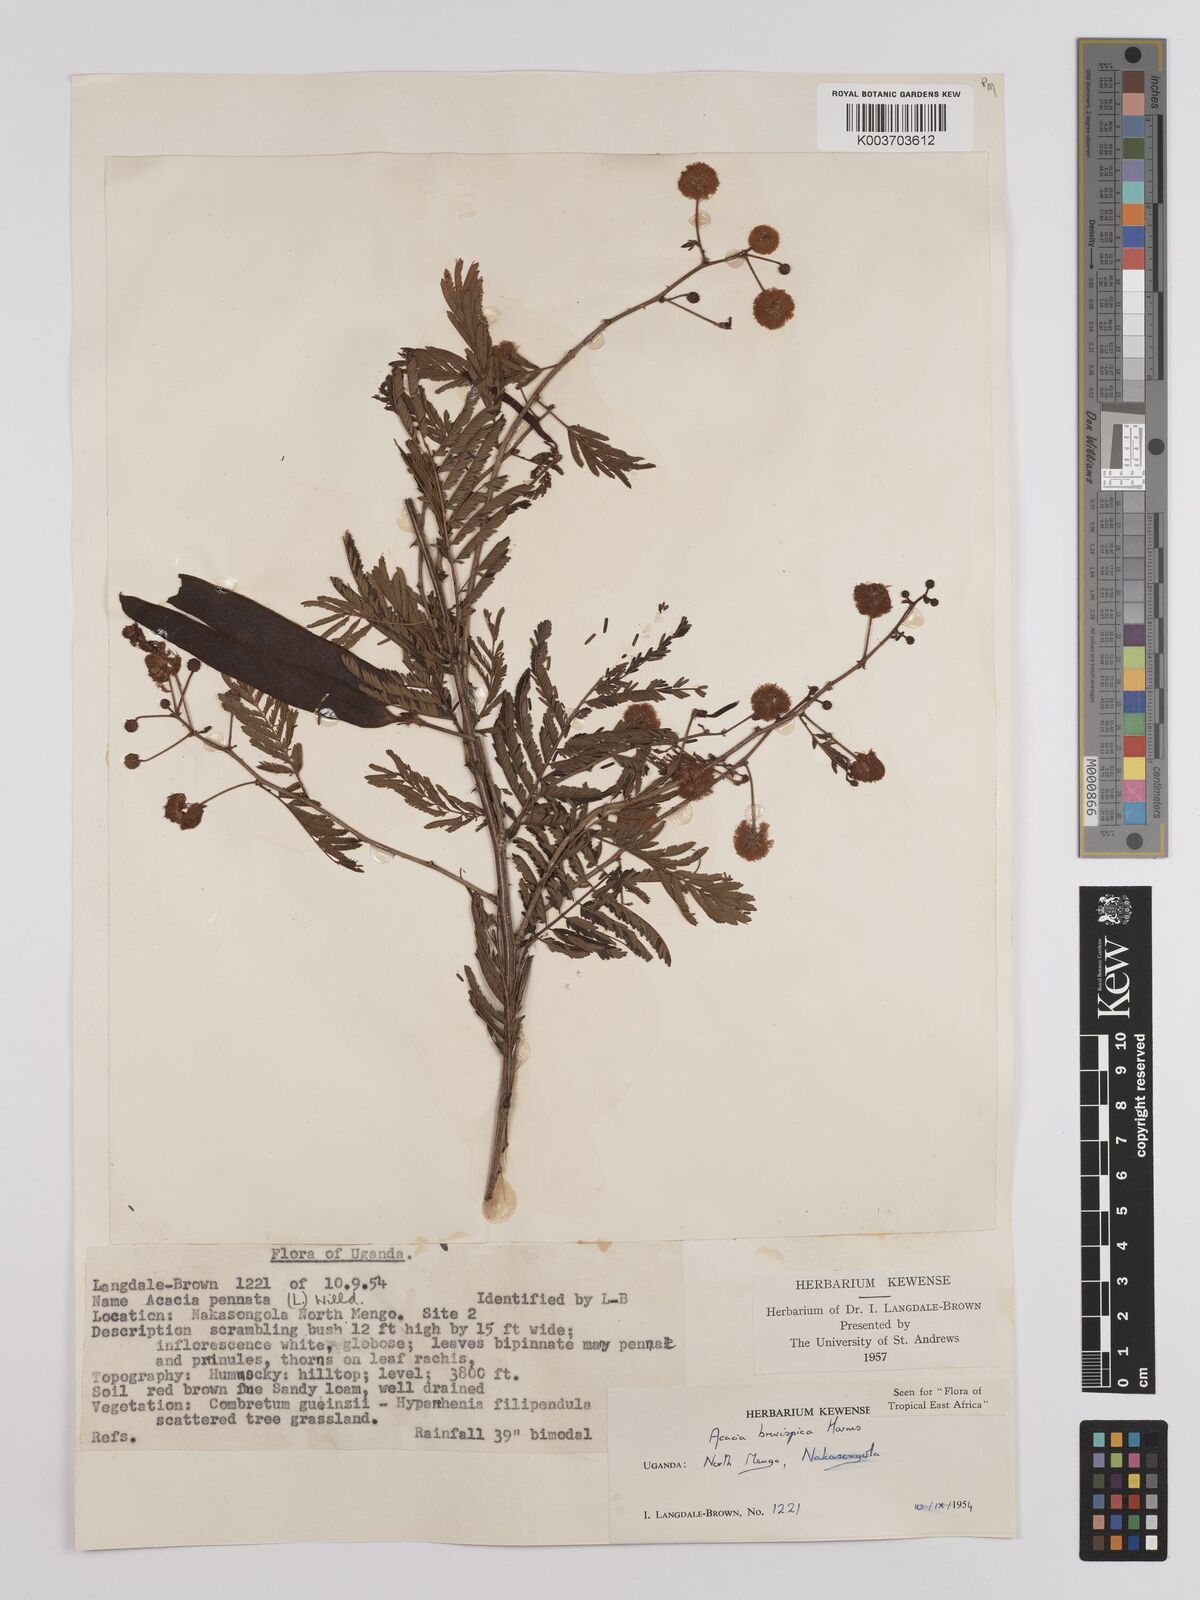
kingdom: Plantae
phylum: Tracheophyta
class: Magnoliopsida
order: Fabales
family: Fabaceae
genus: Senegalia
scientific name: Senegalia brevispica
